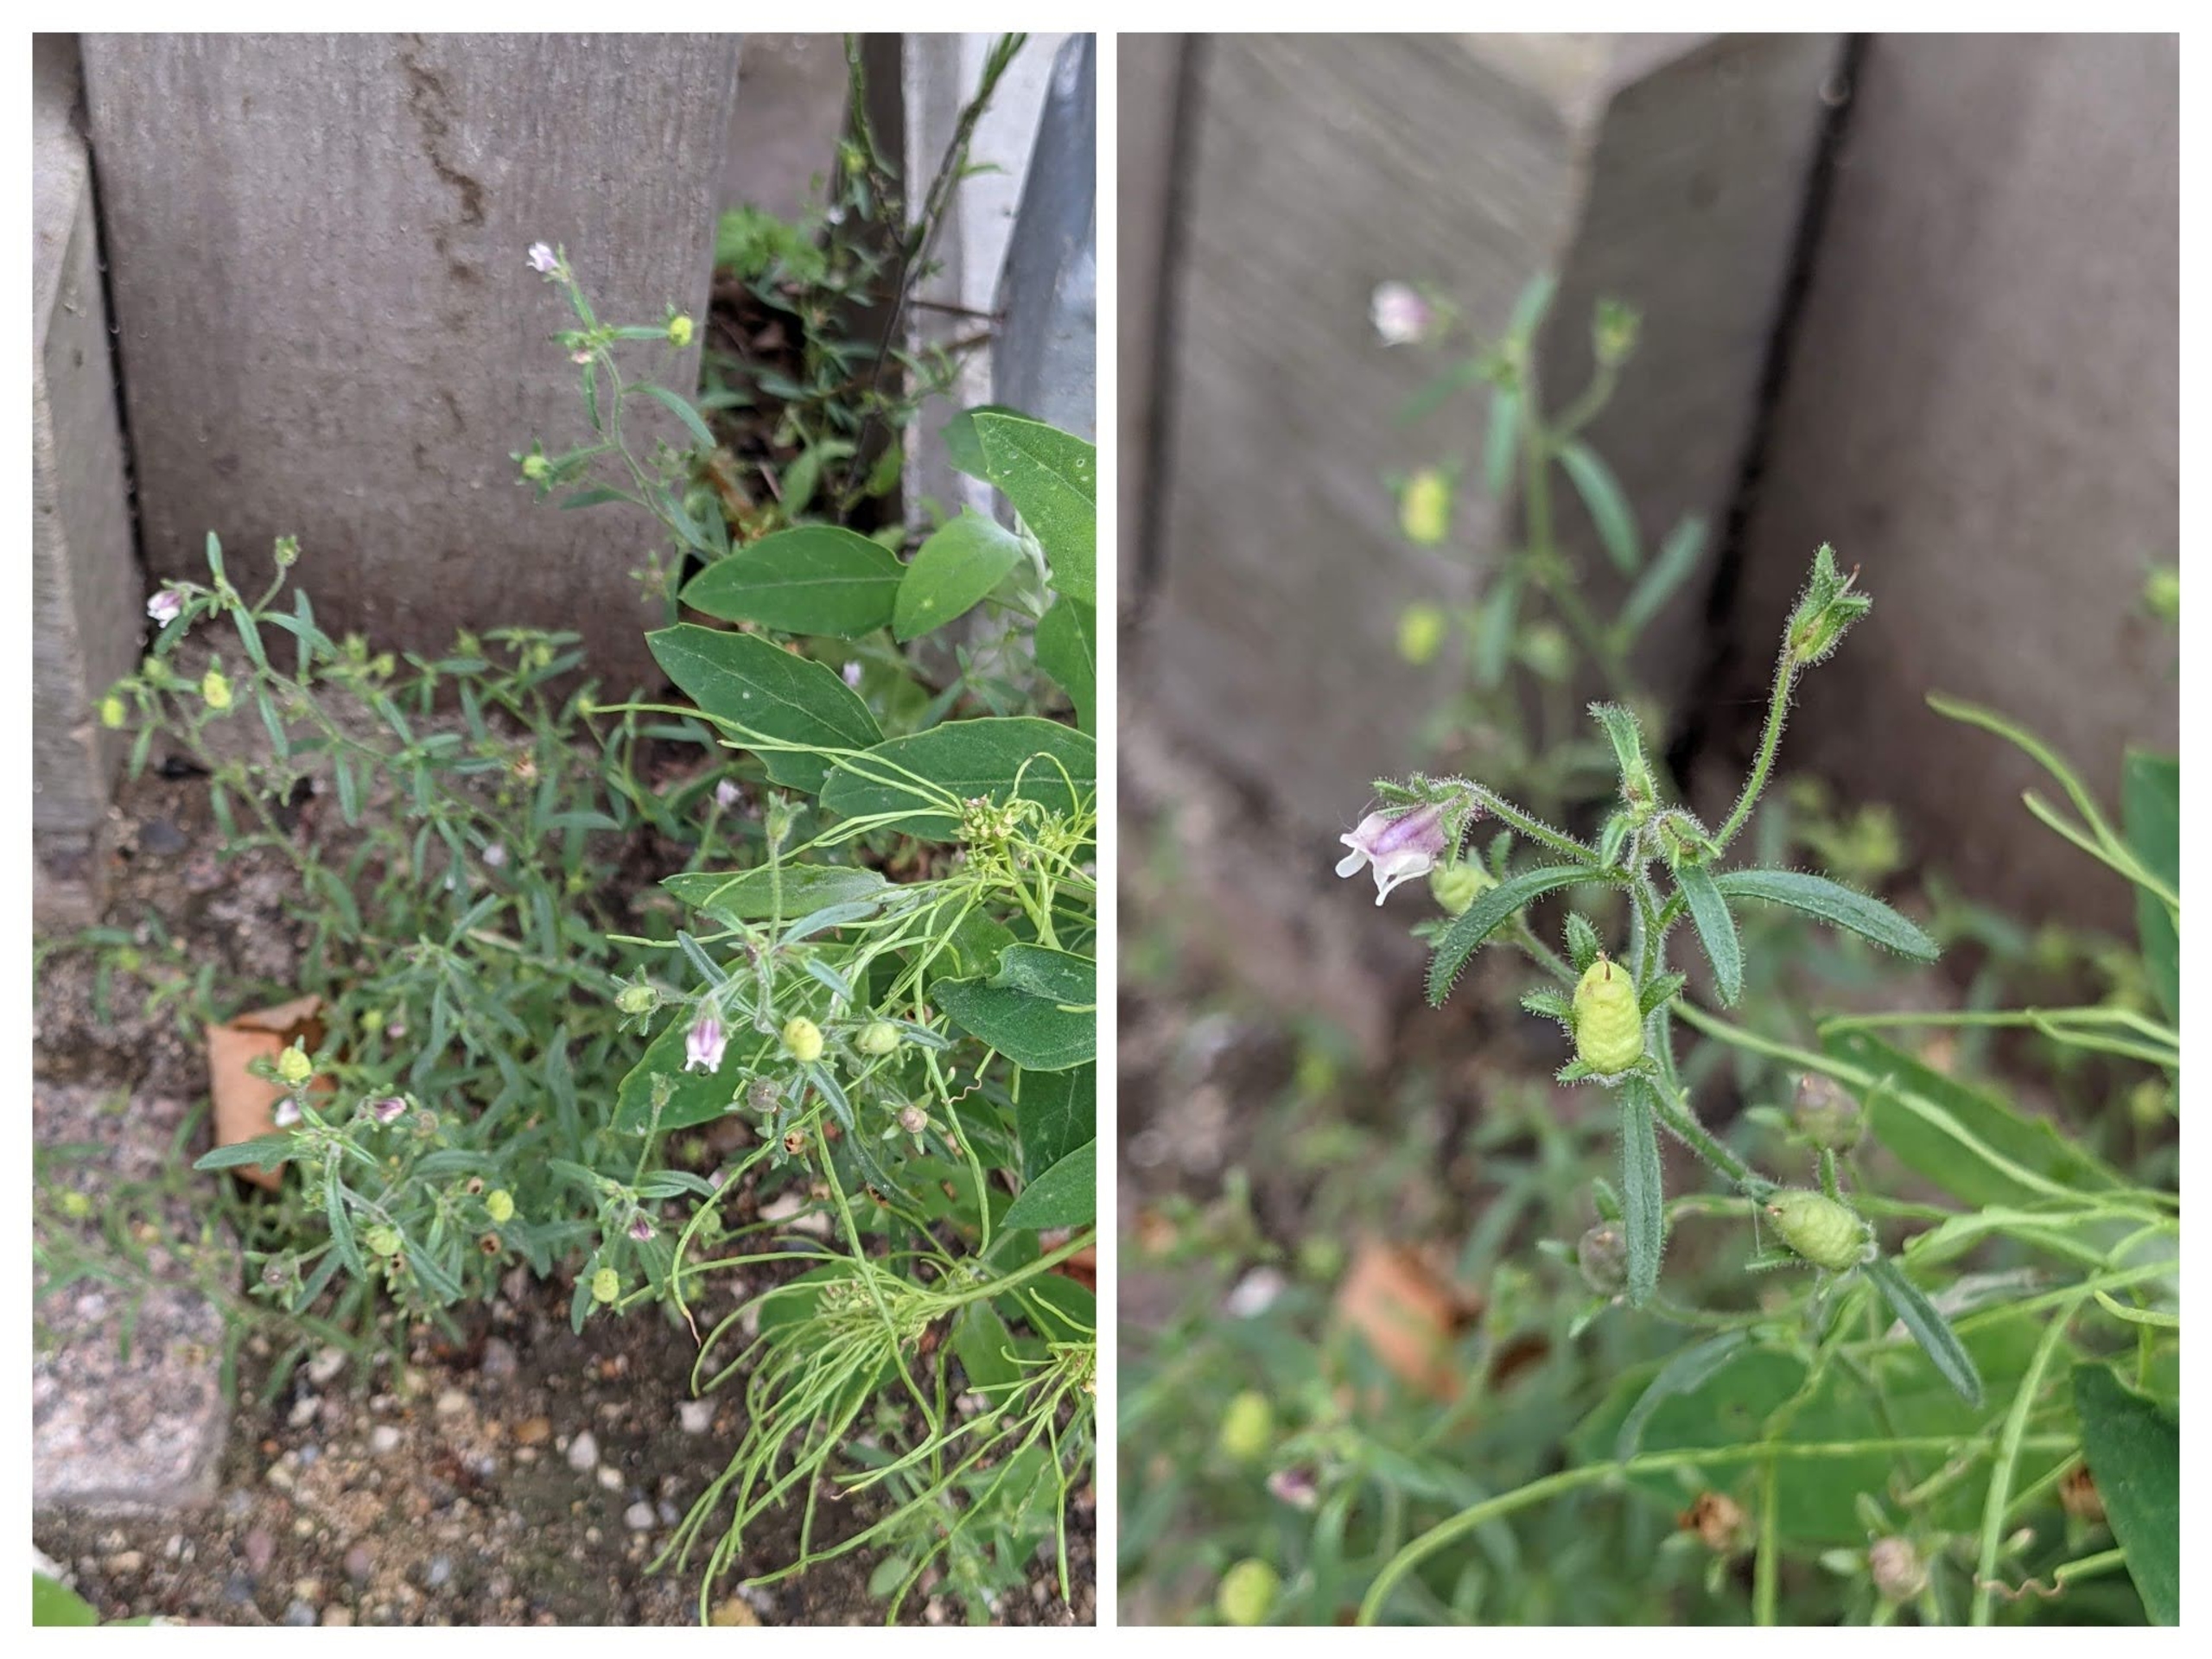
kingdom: Plantae
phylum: Tracheophyta
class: Magnoliopsida
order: Lamiales
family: Plantaginaceae
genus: Chaenorhinum
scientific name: Chaenorhinum minus
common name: Liden torskemund
